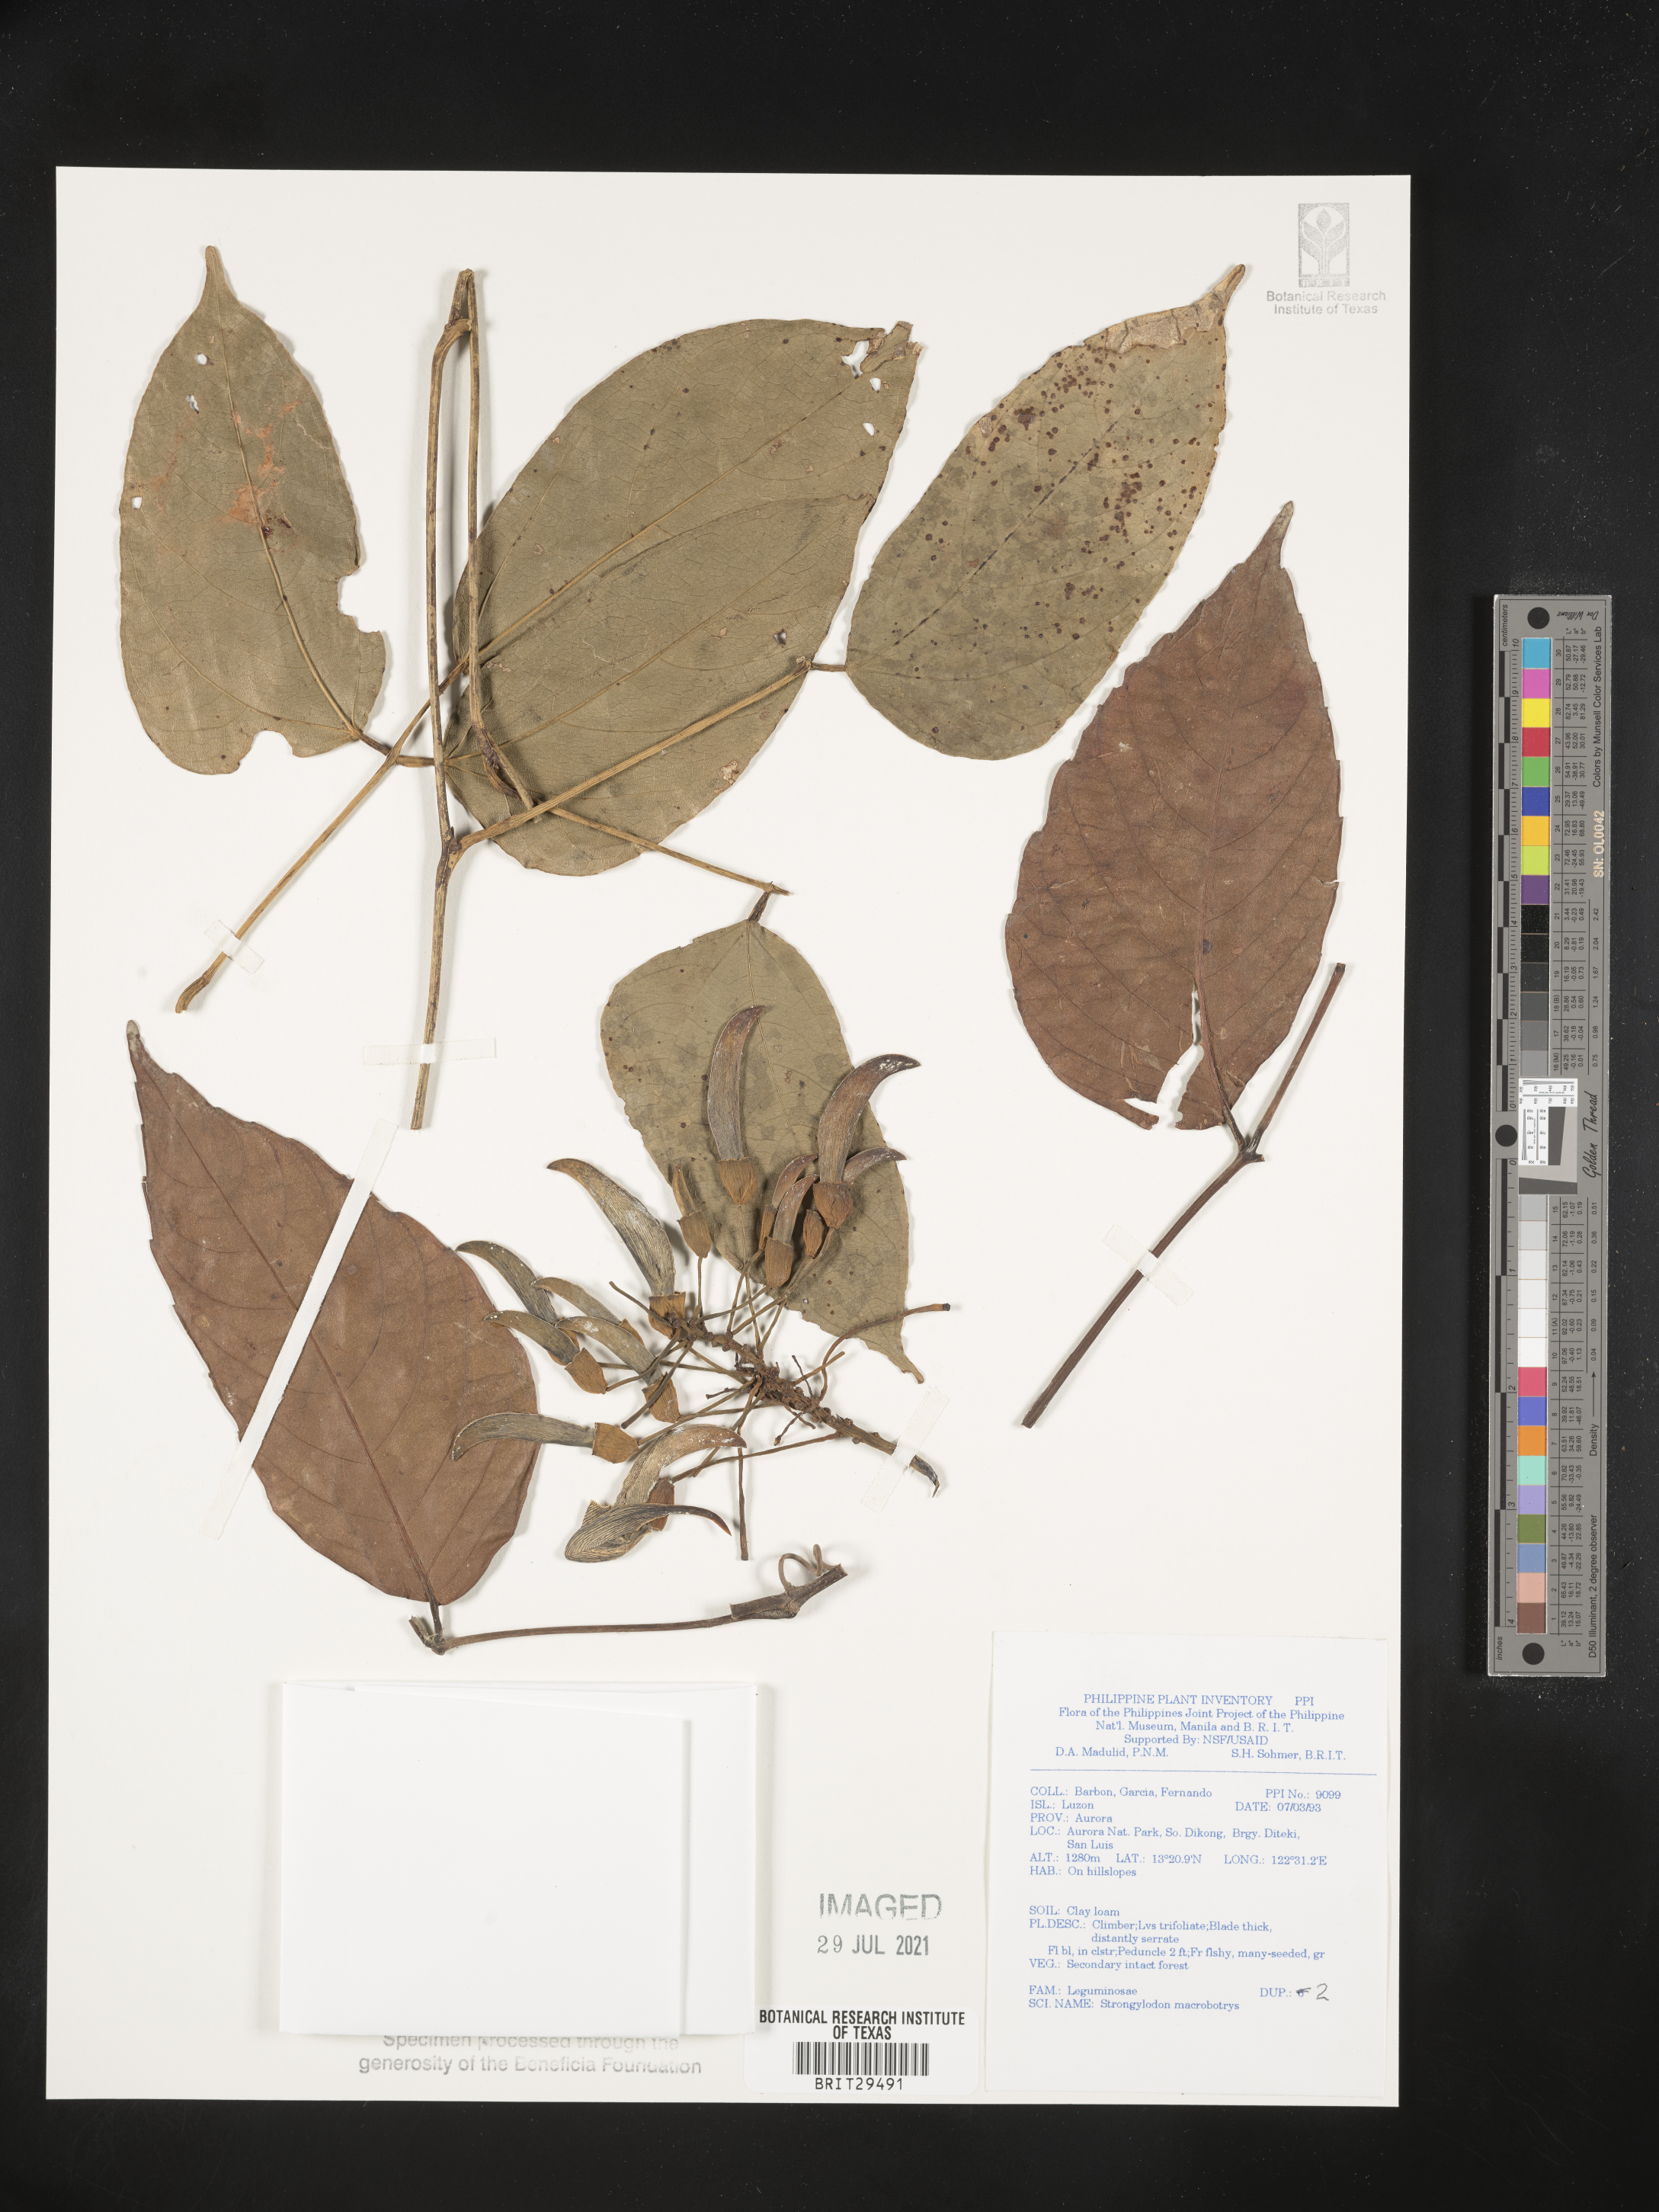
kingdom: Plantae
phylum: Tracheophyta
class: Magnoliopsida
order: Fabales
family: Fabaceae
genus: Strongylodon
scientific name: Strongylodon macrobotrys
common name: Jadevine
